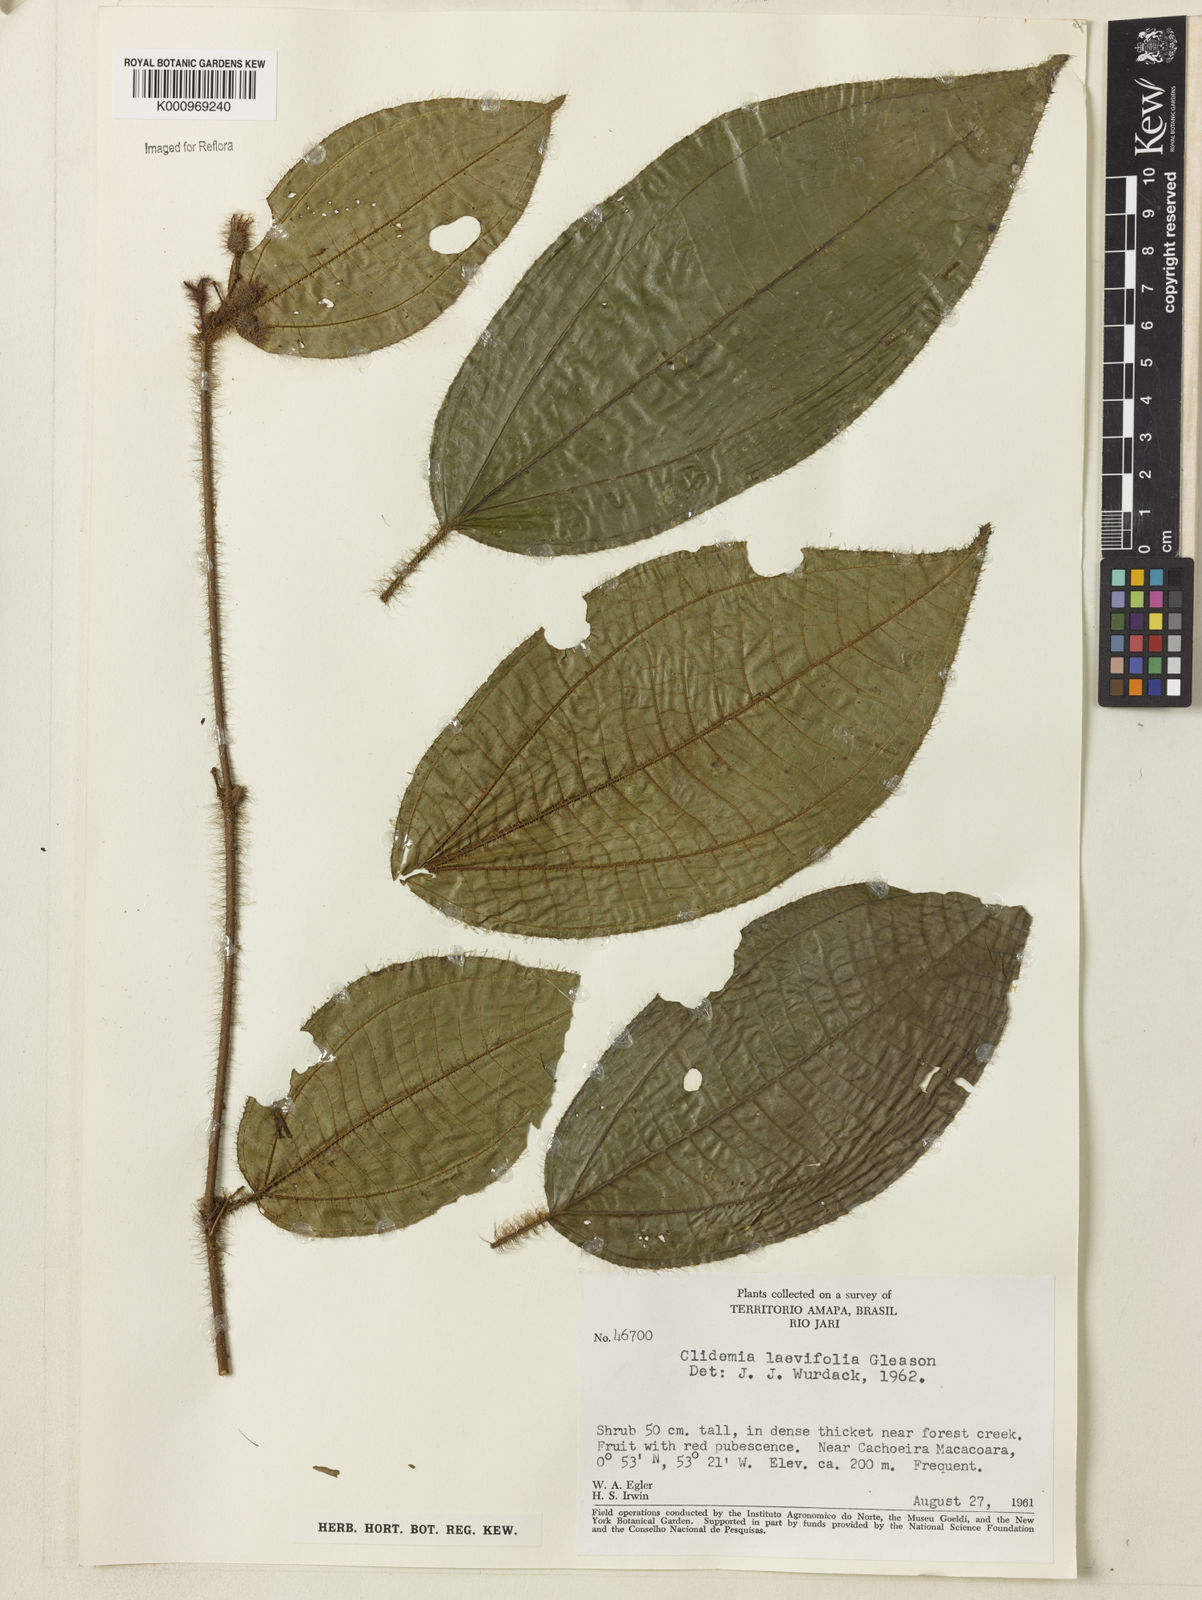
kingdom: Plantae
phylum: Tracheophyta
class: Magnoliopsida
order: Myrtales
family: Melastomataceae
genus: Miconia
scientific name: Miconia
